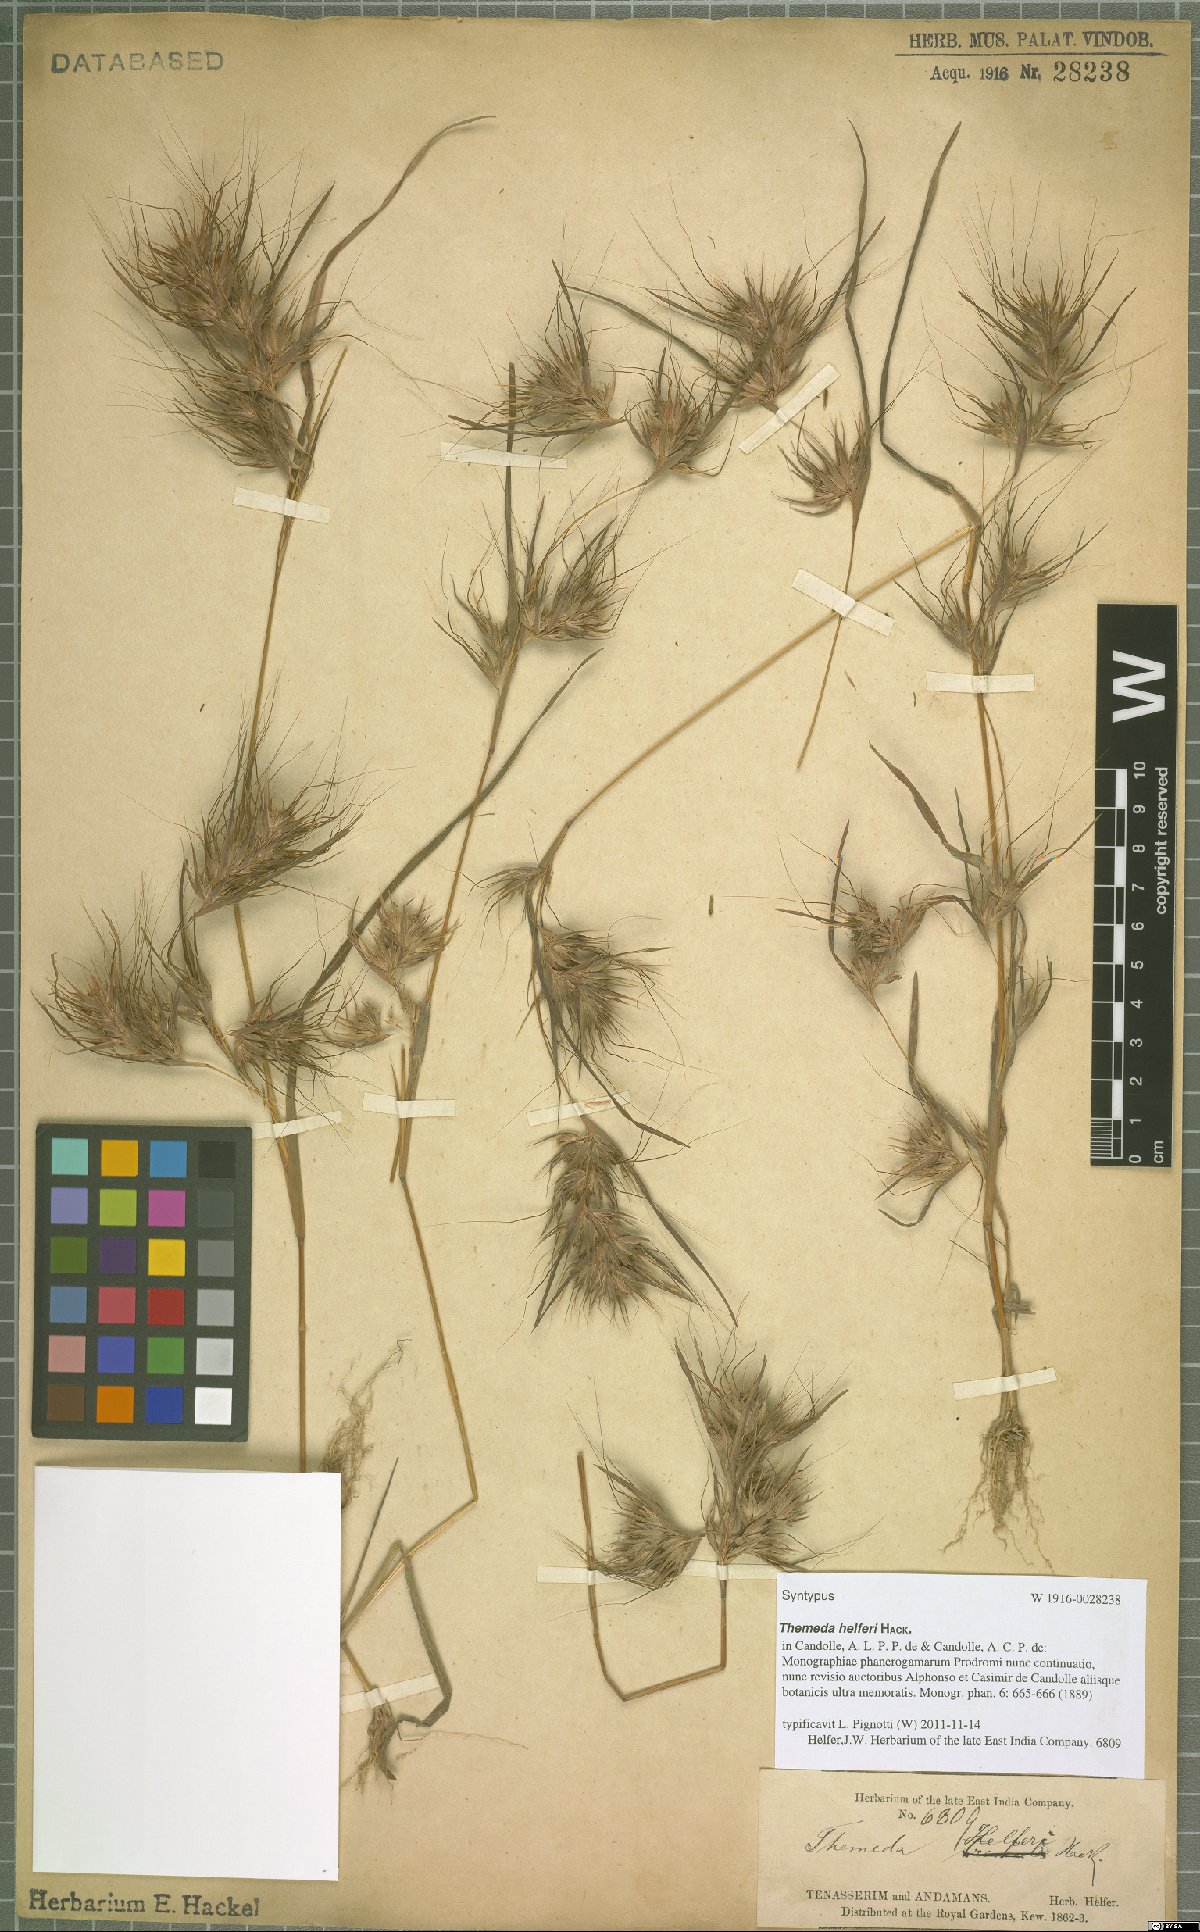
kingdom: Plantae
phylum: Tracheophyta
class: Liliopsida
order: Poales
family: Poaceae
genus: Themeda
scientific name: Themeda helferi
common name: Kangaroo grass
